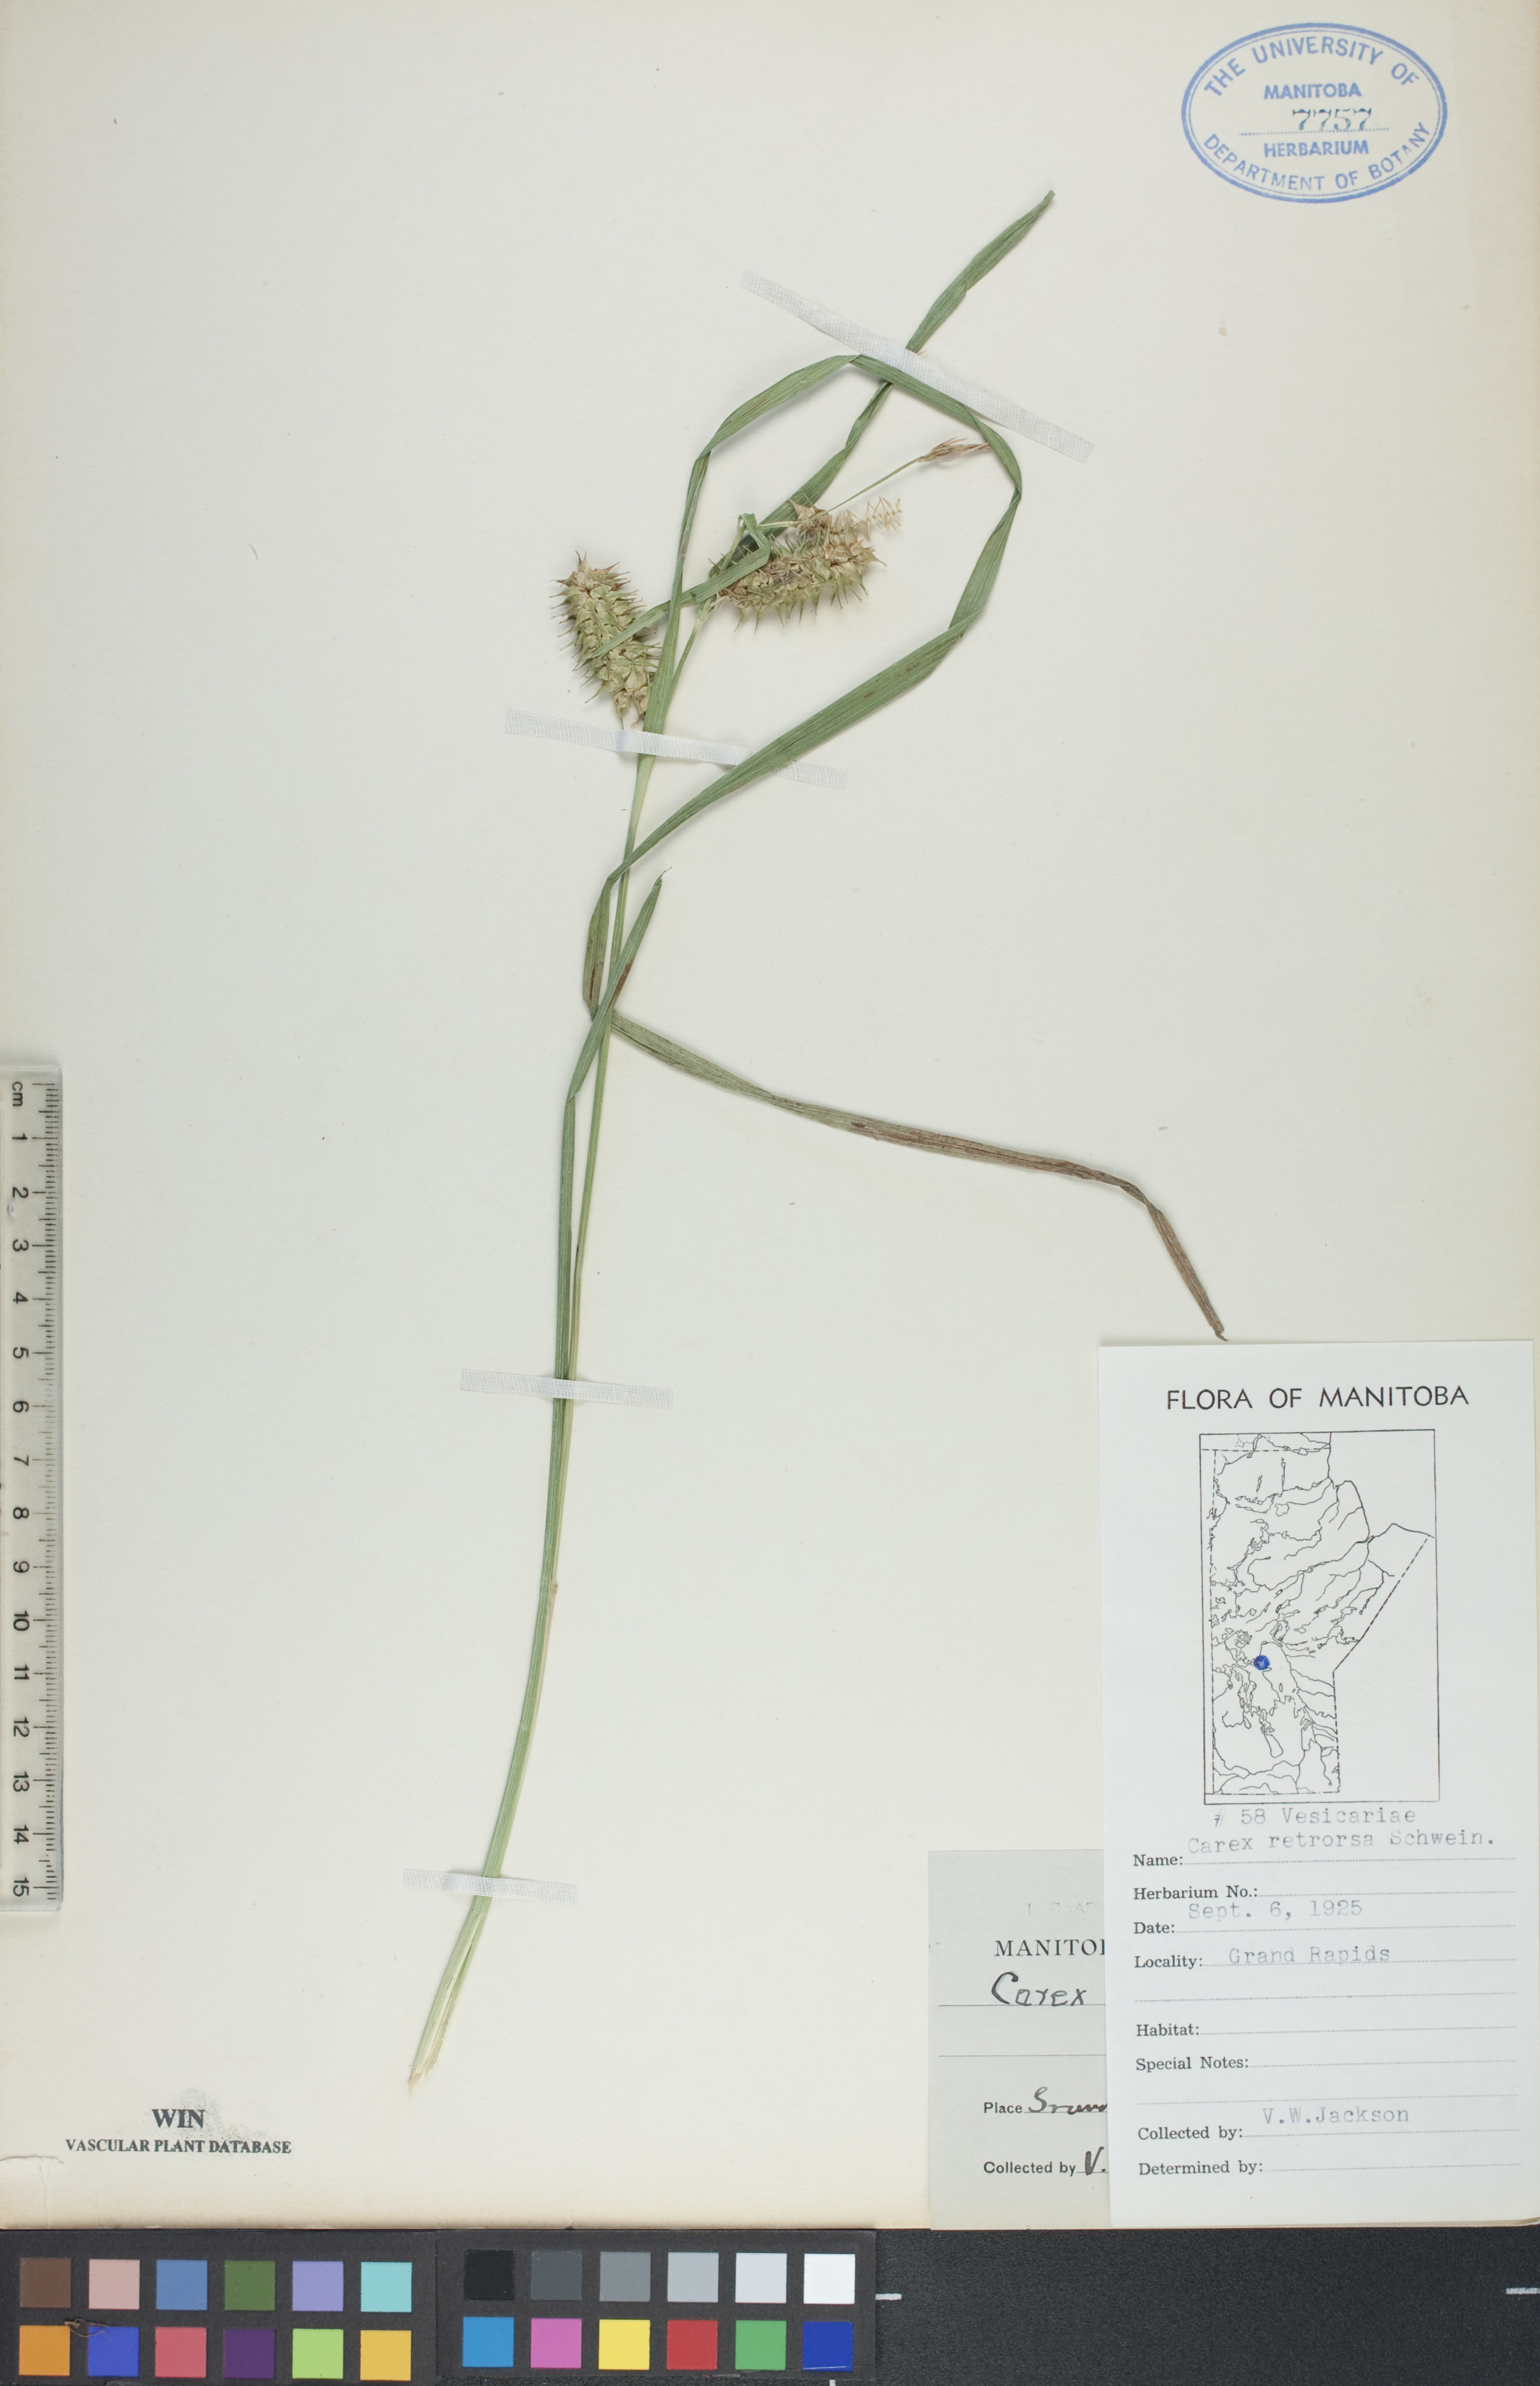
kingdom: Plantae
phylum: Tracheophyta
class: Liliopsida
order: Poales
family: Cyperaceae
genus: Carex
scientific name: Carex retrorsa
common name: Knot-sheath sedge
